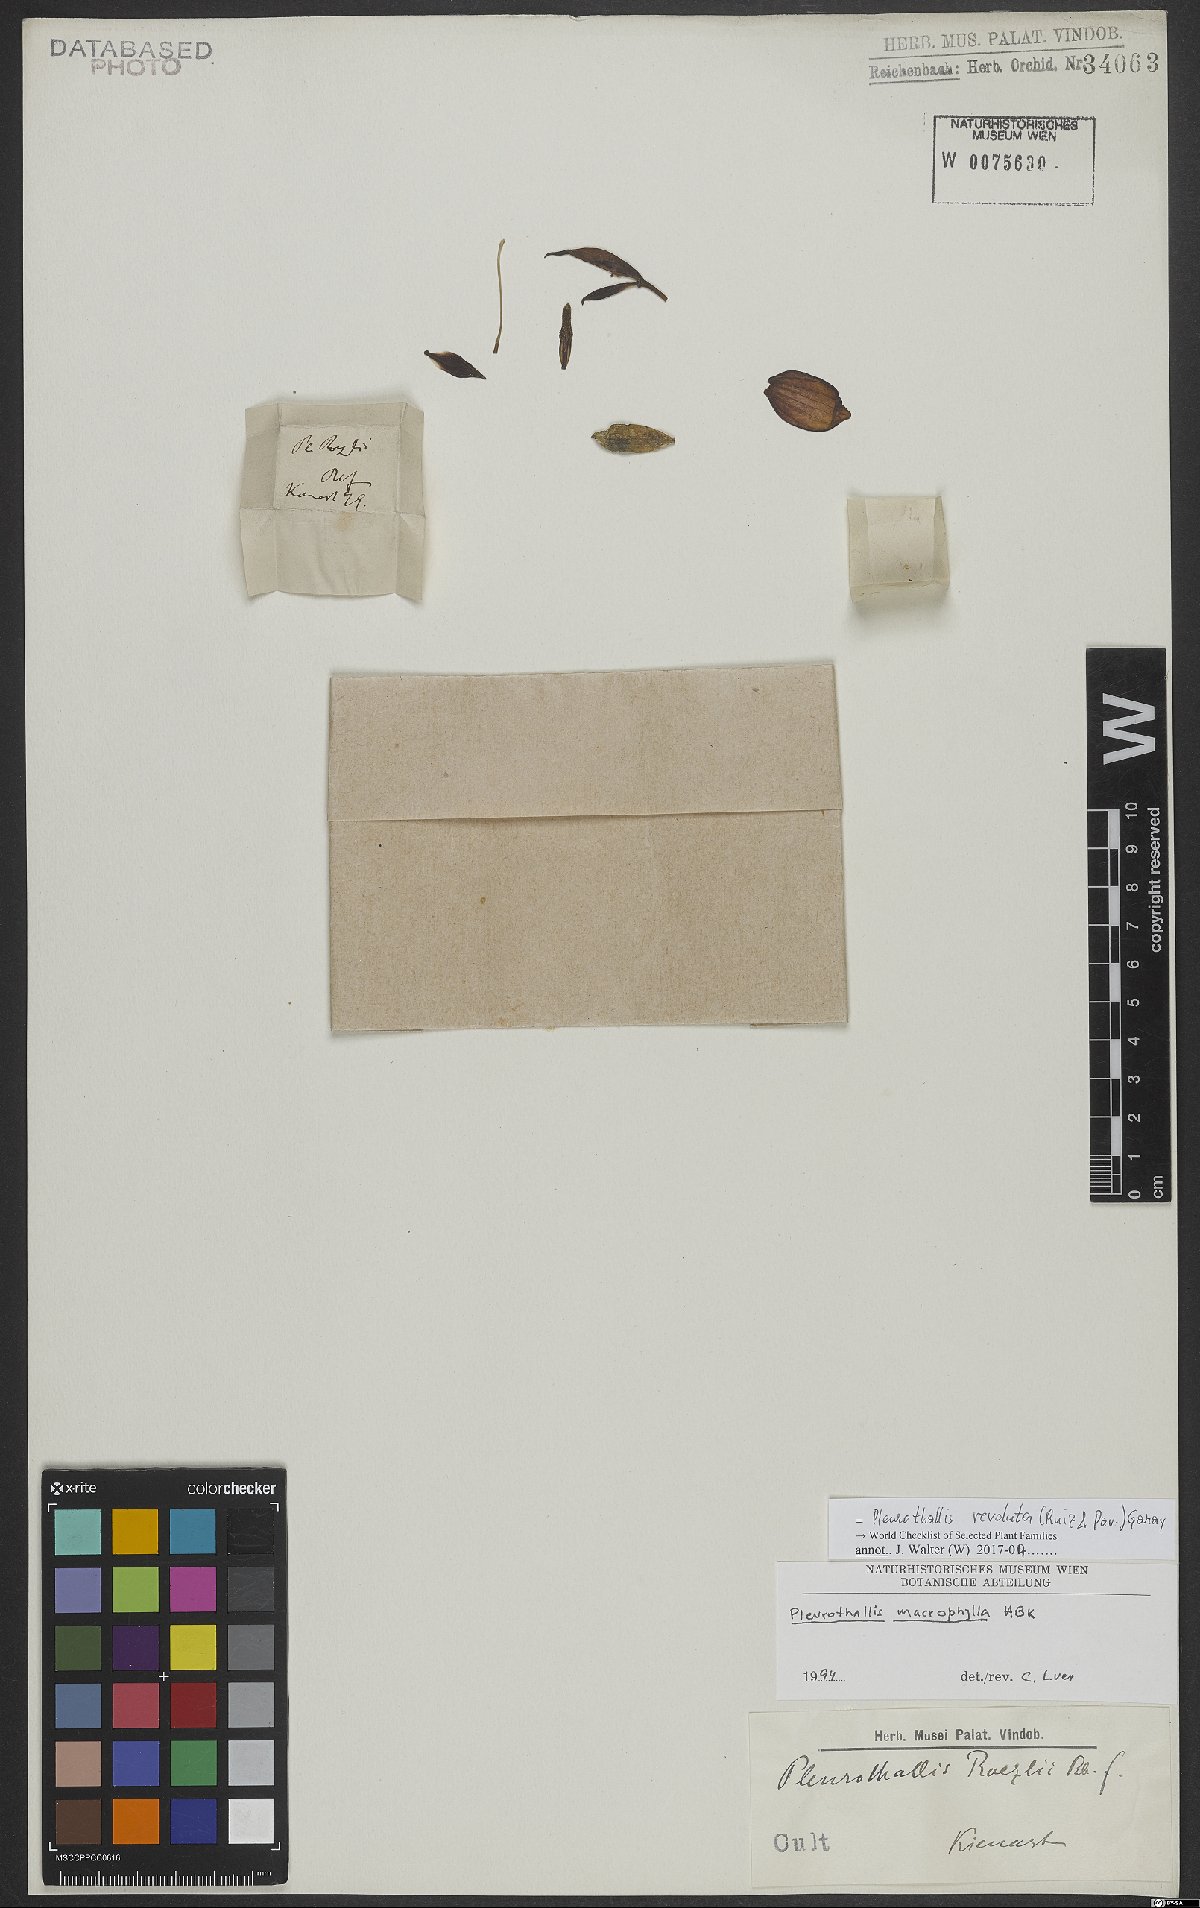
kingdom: Plantae
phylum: Tracheophyta
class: Liliopsida
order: Asparagales
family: Orchidaceae
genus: Pleurothallis
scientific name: Pleurothallis revoluta
